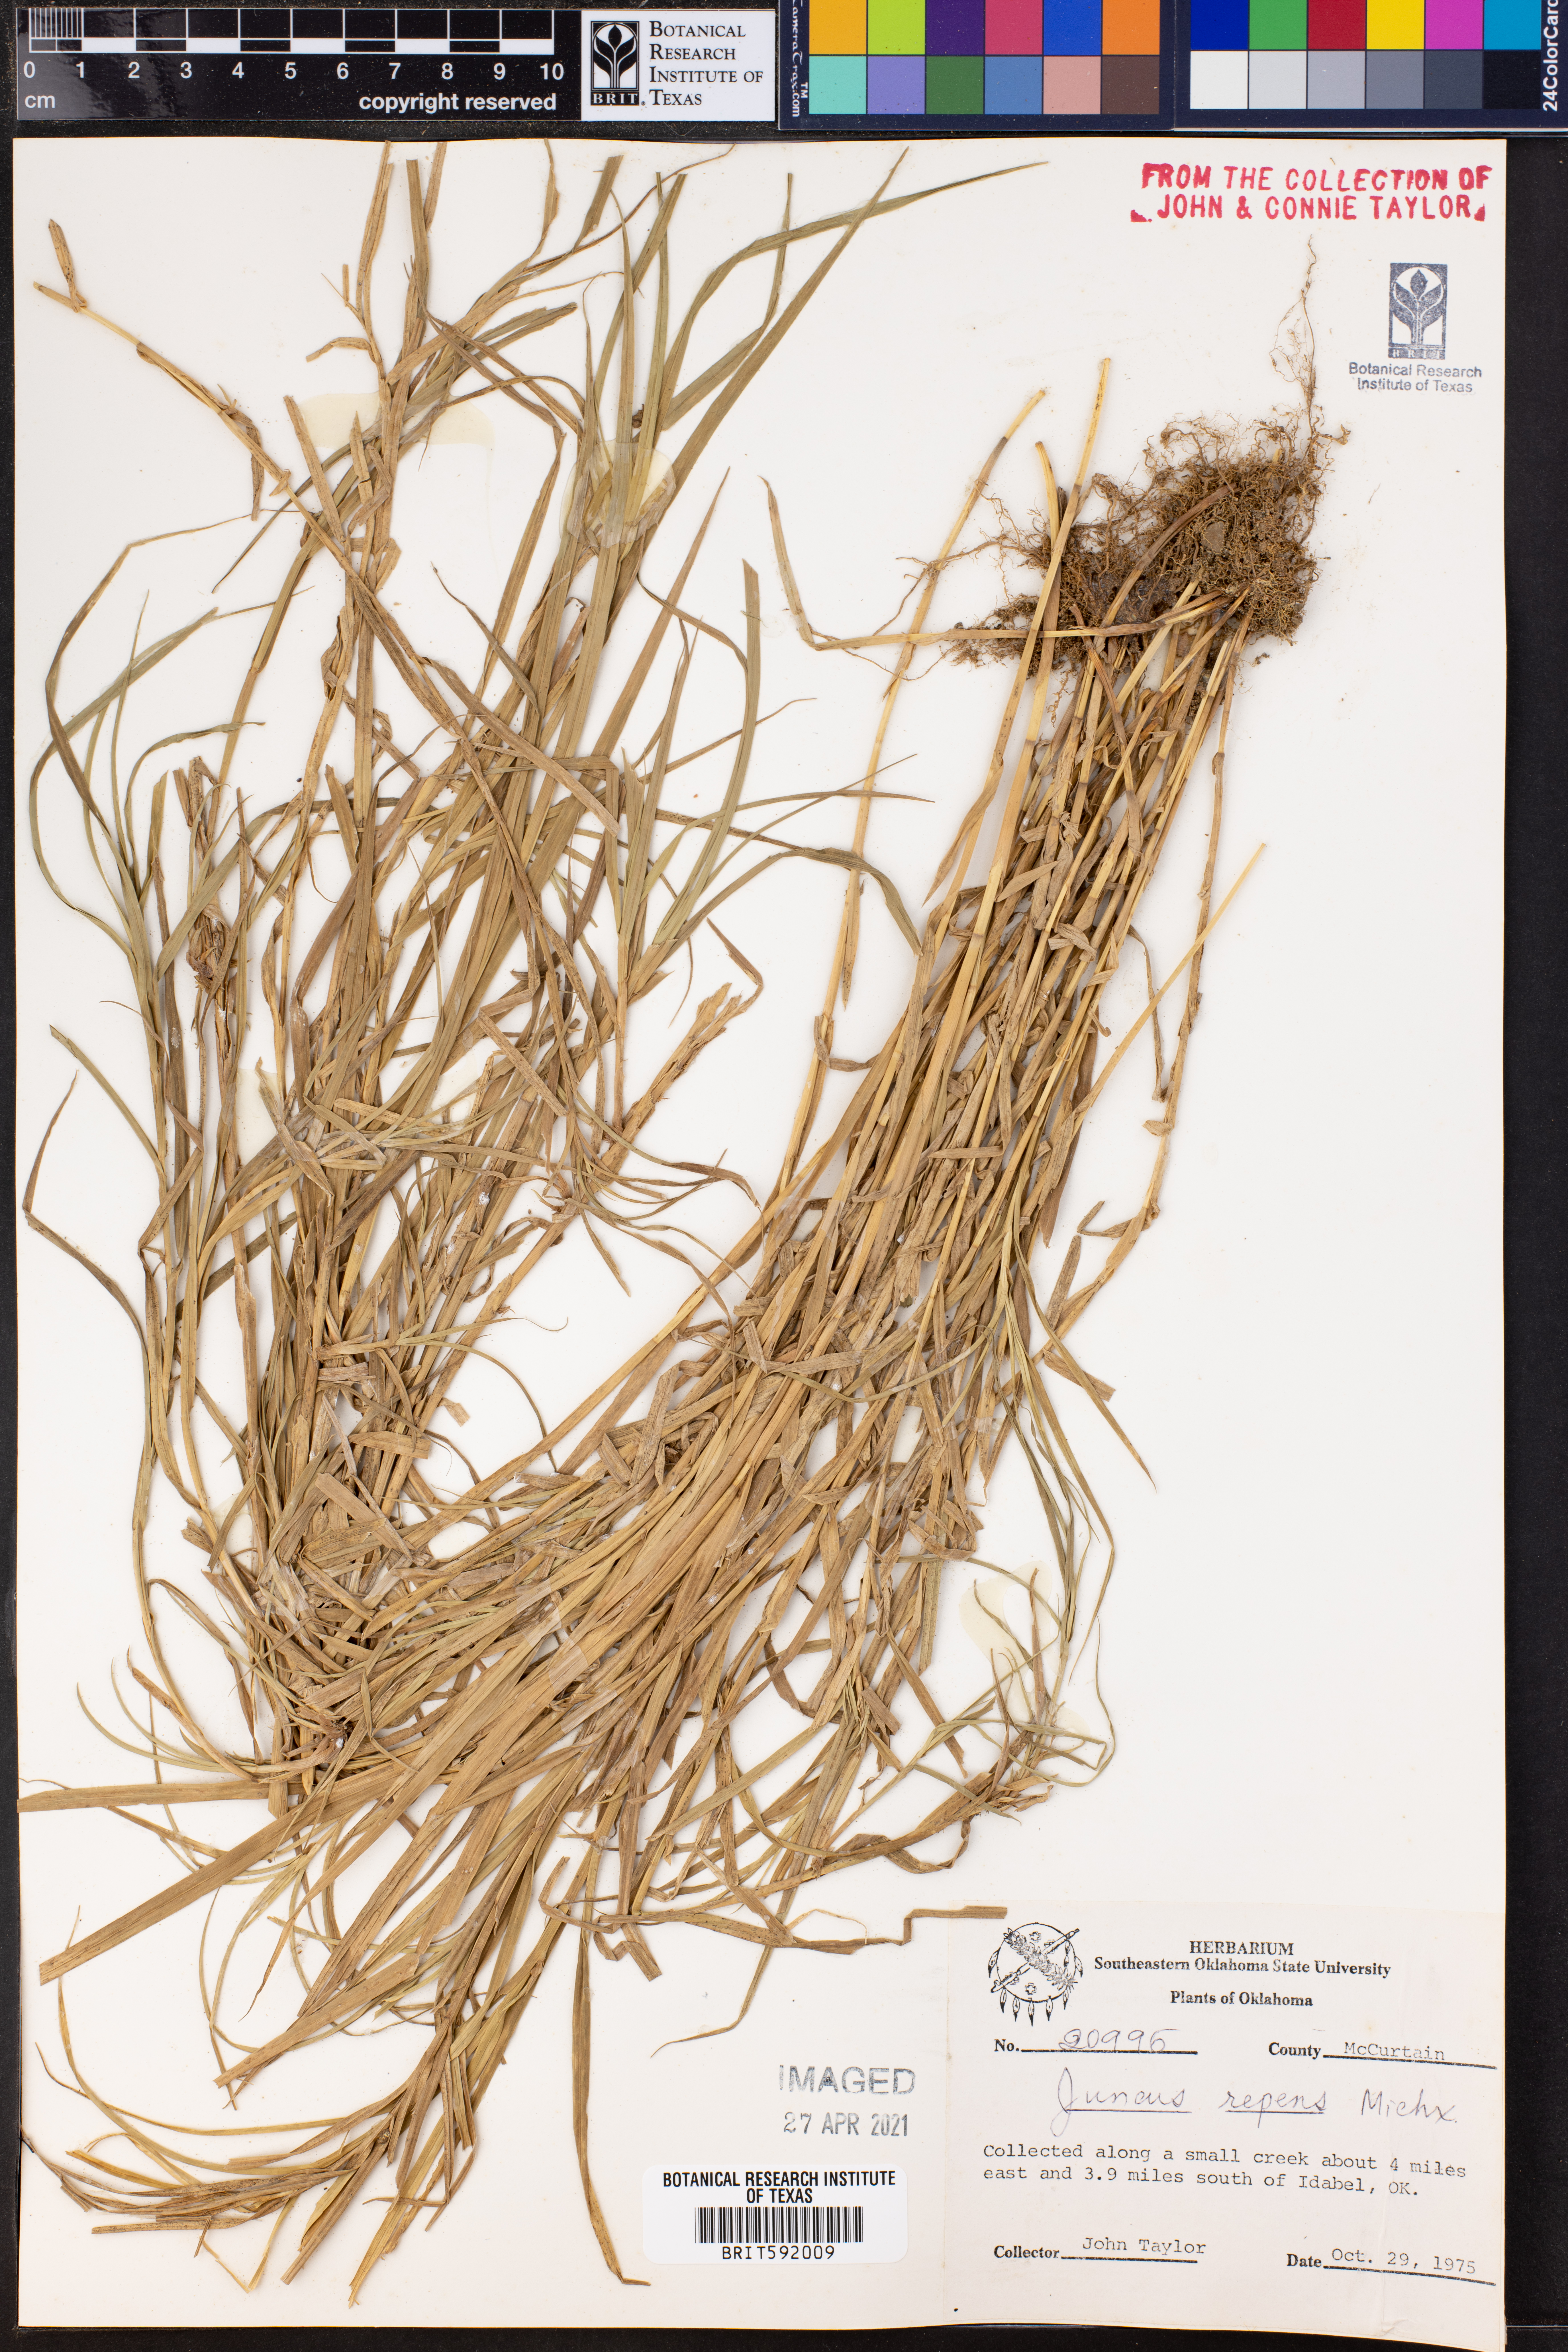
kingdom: Plantae
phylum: Tracheophyta
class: Liliopsida
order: Poales
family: Juncaceae
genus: Juncus
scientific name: Juncus repens
